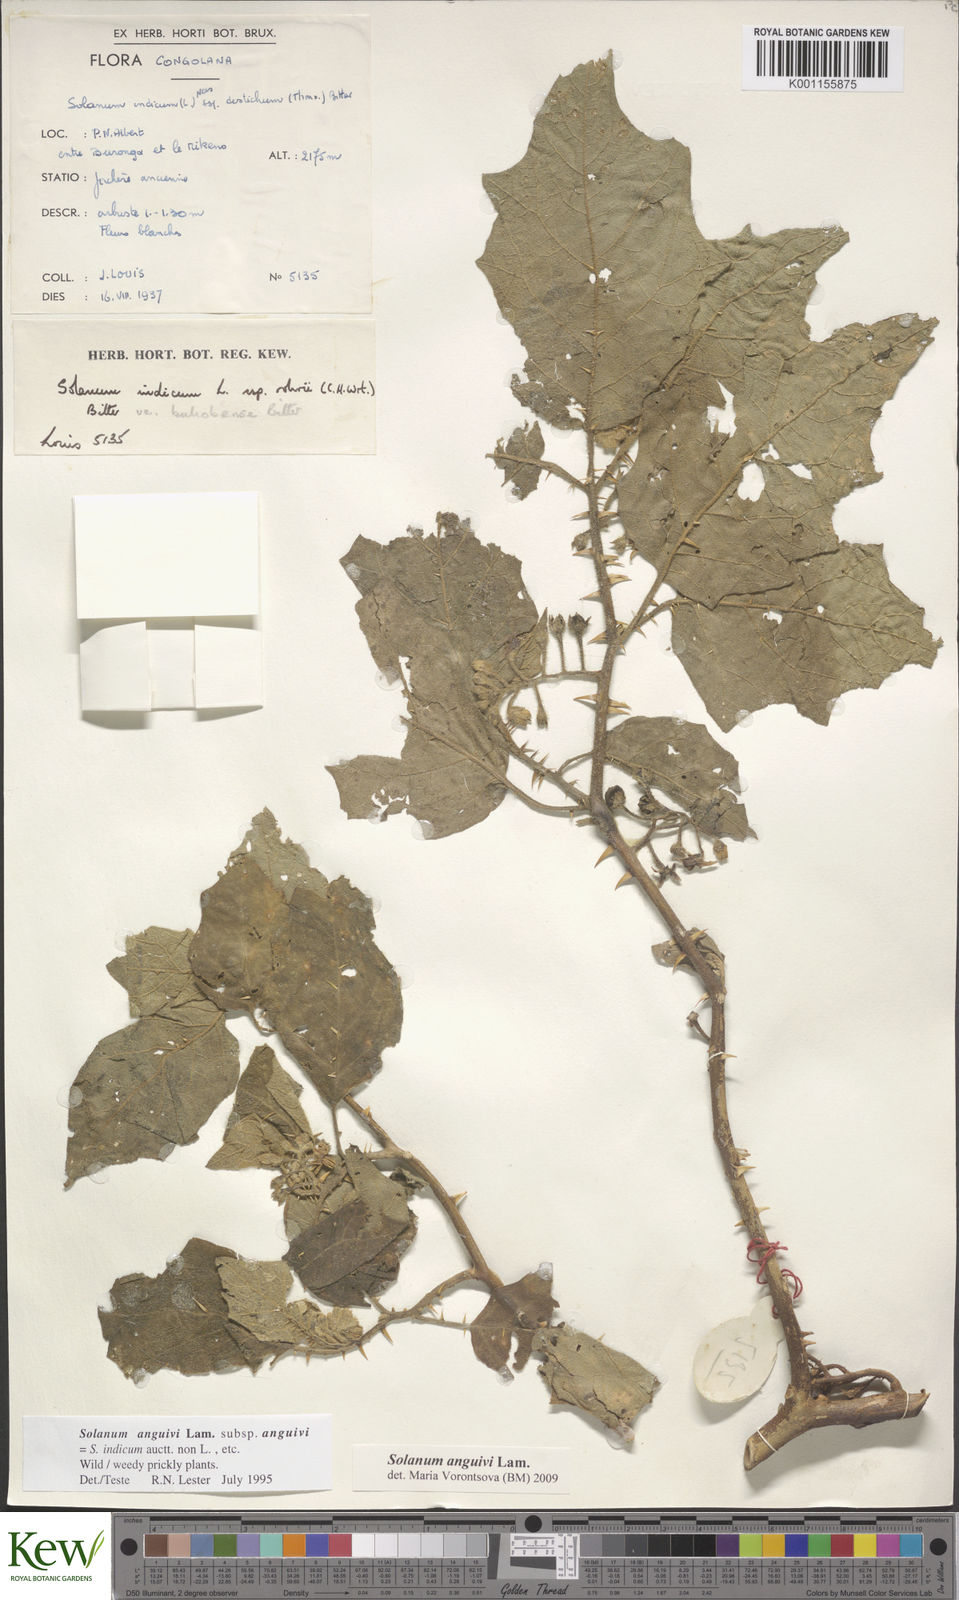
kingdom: Plantae
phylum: Tracheophyta
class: Magnoliopsida
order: Solanales
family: Solanaceae
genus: Solanum
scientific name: Solanum anguivi
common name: Forest bitterberry
